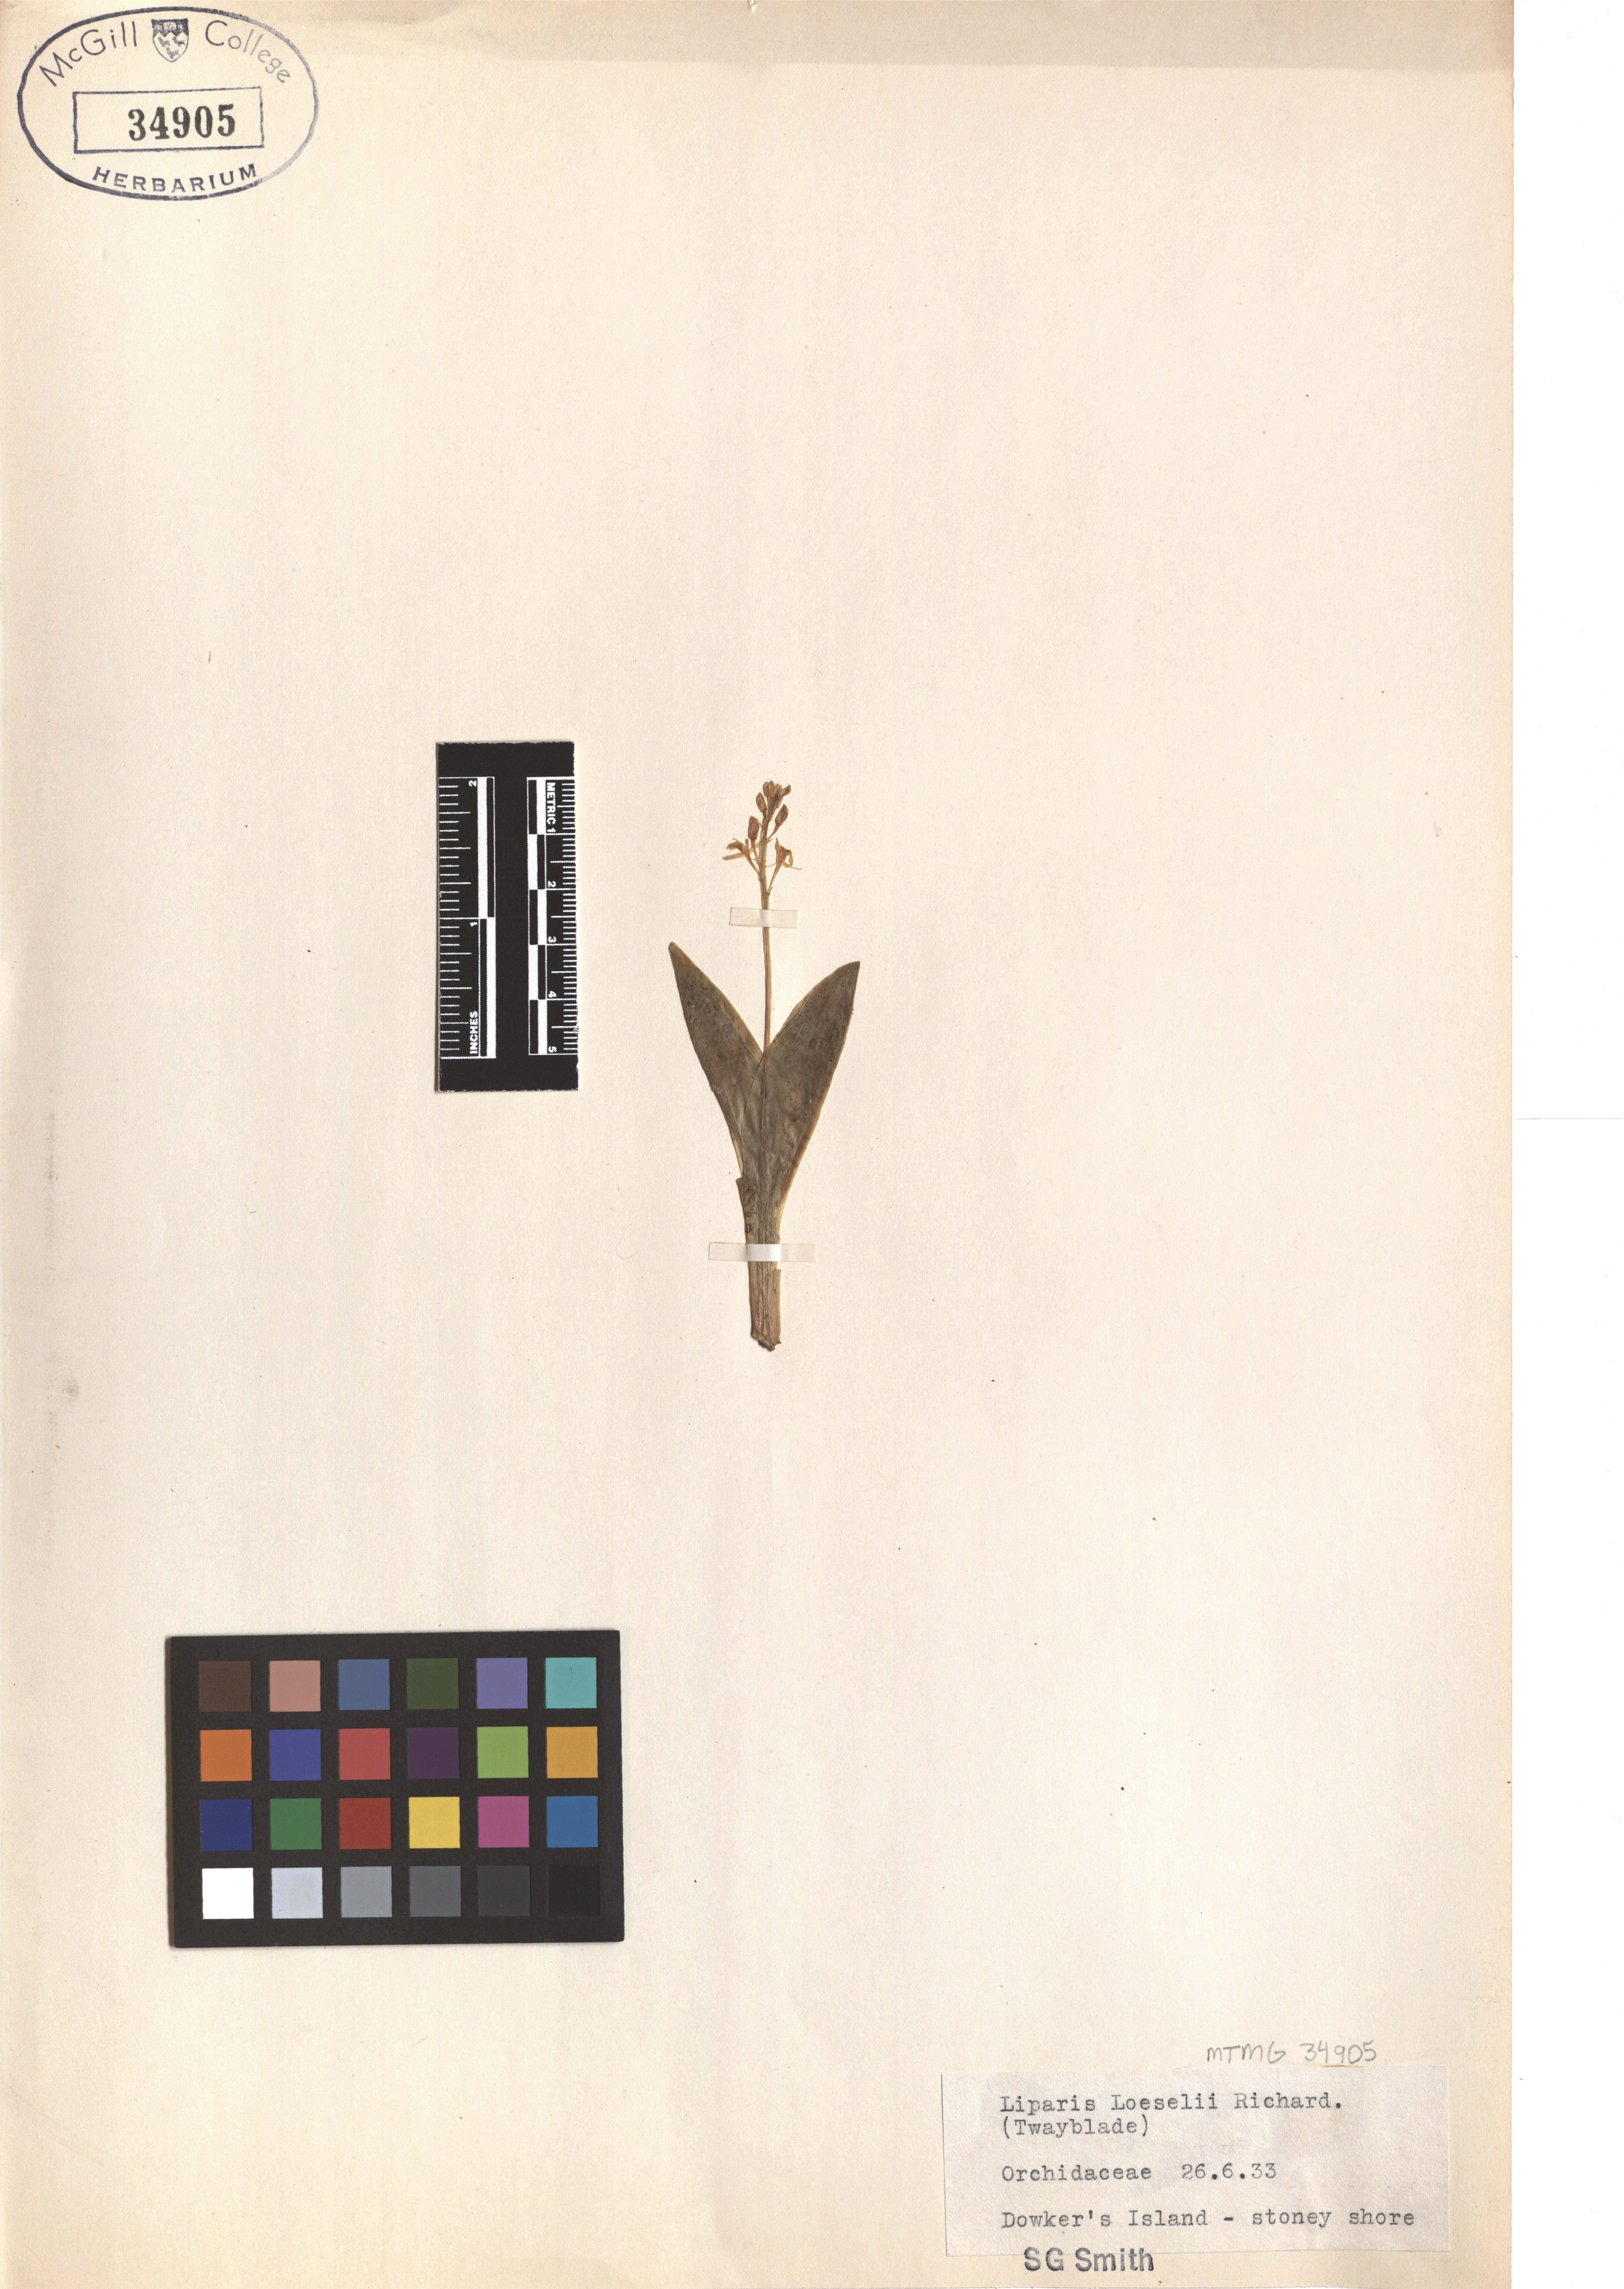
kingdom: Animalia
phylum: Arthropoda
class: Insecta
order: Coleoptera
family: Curculionidae
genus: Liparis
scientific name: Liparis loeselii
